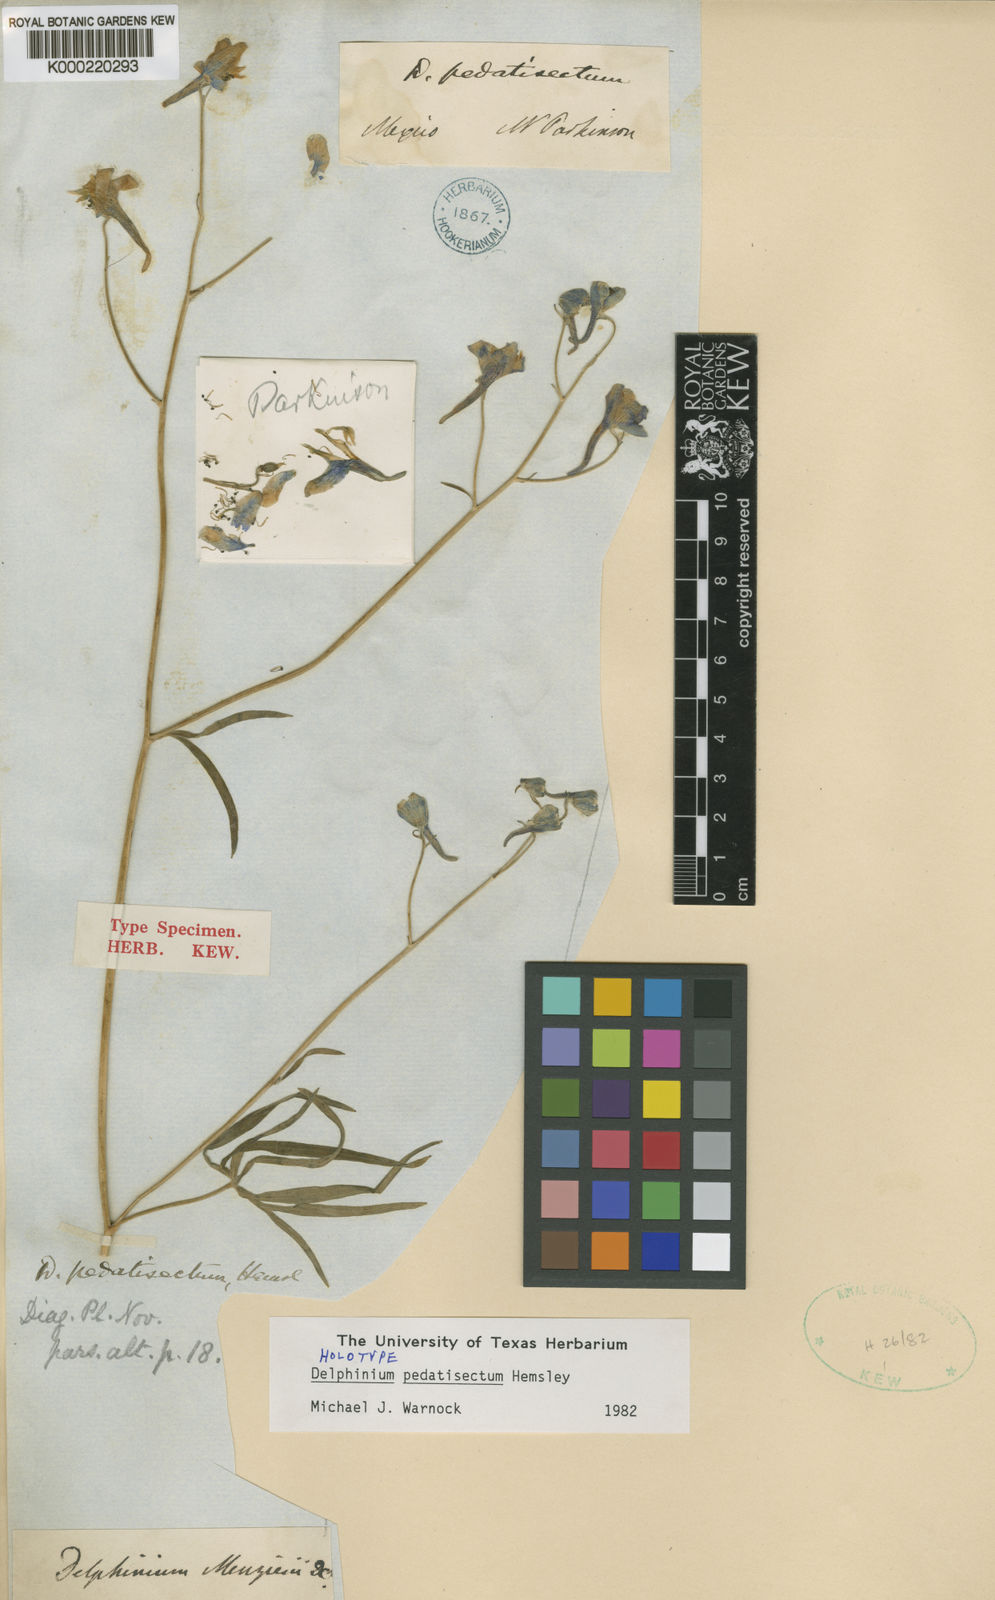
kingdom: Plantae
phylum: Tracheophyta
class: Magnoliopsida
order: Ranunculales
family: Ranunculaceae
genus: Delphinium
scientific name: Delphinium pedatisectum
